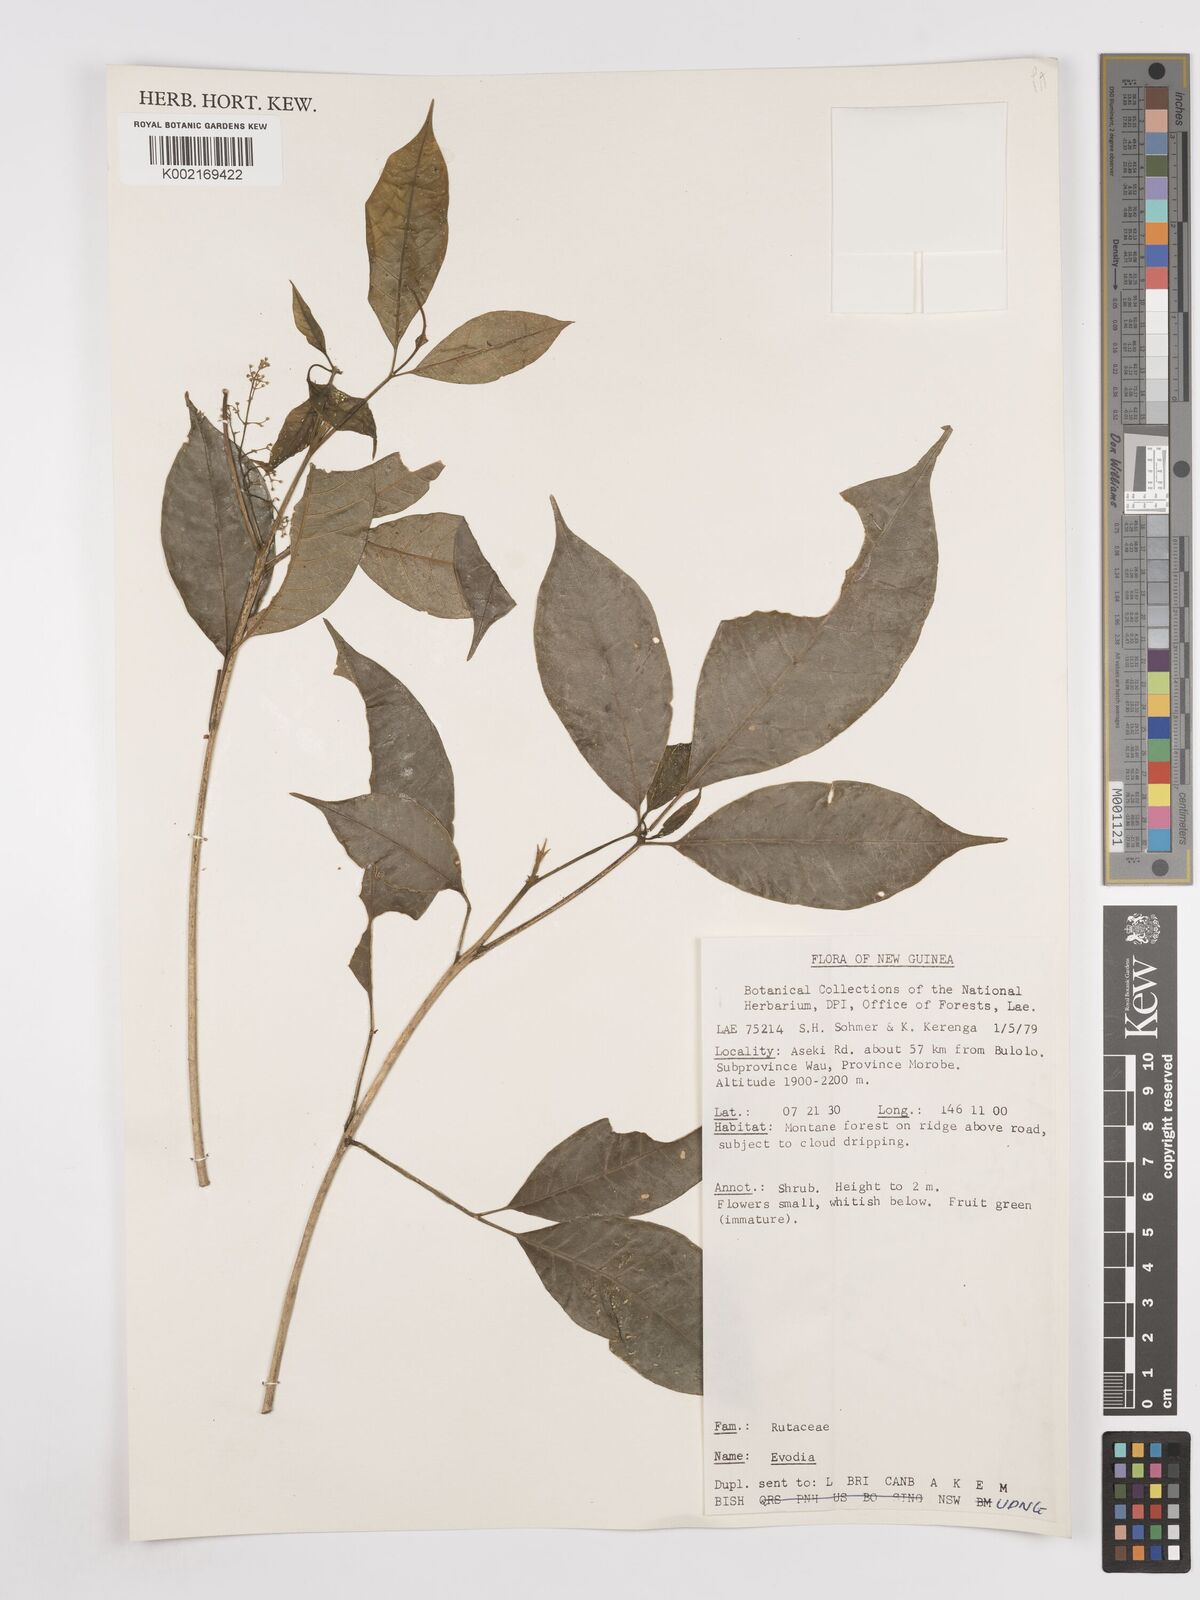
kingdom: Plantae
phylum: Tracheophyta
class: Magnoliopsida
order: Sapindales
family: Rutaceae
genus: Euodia
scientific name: Euodia
